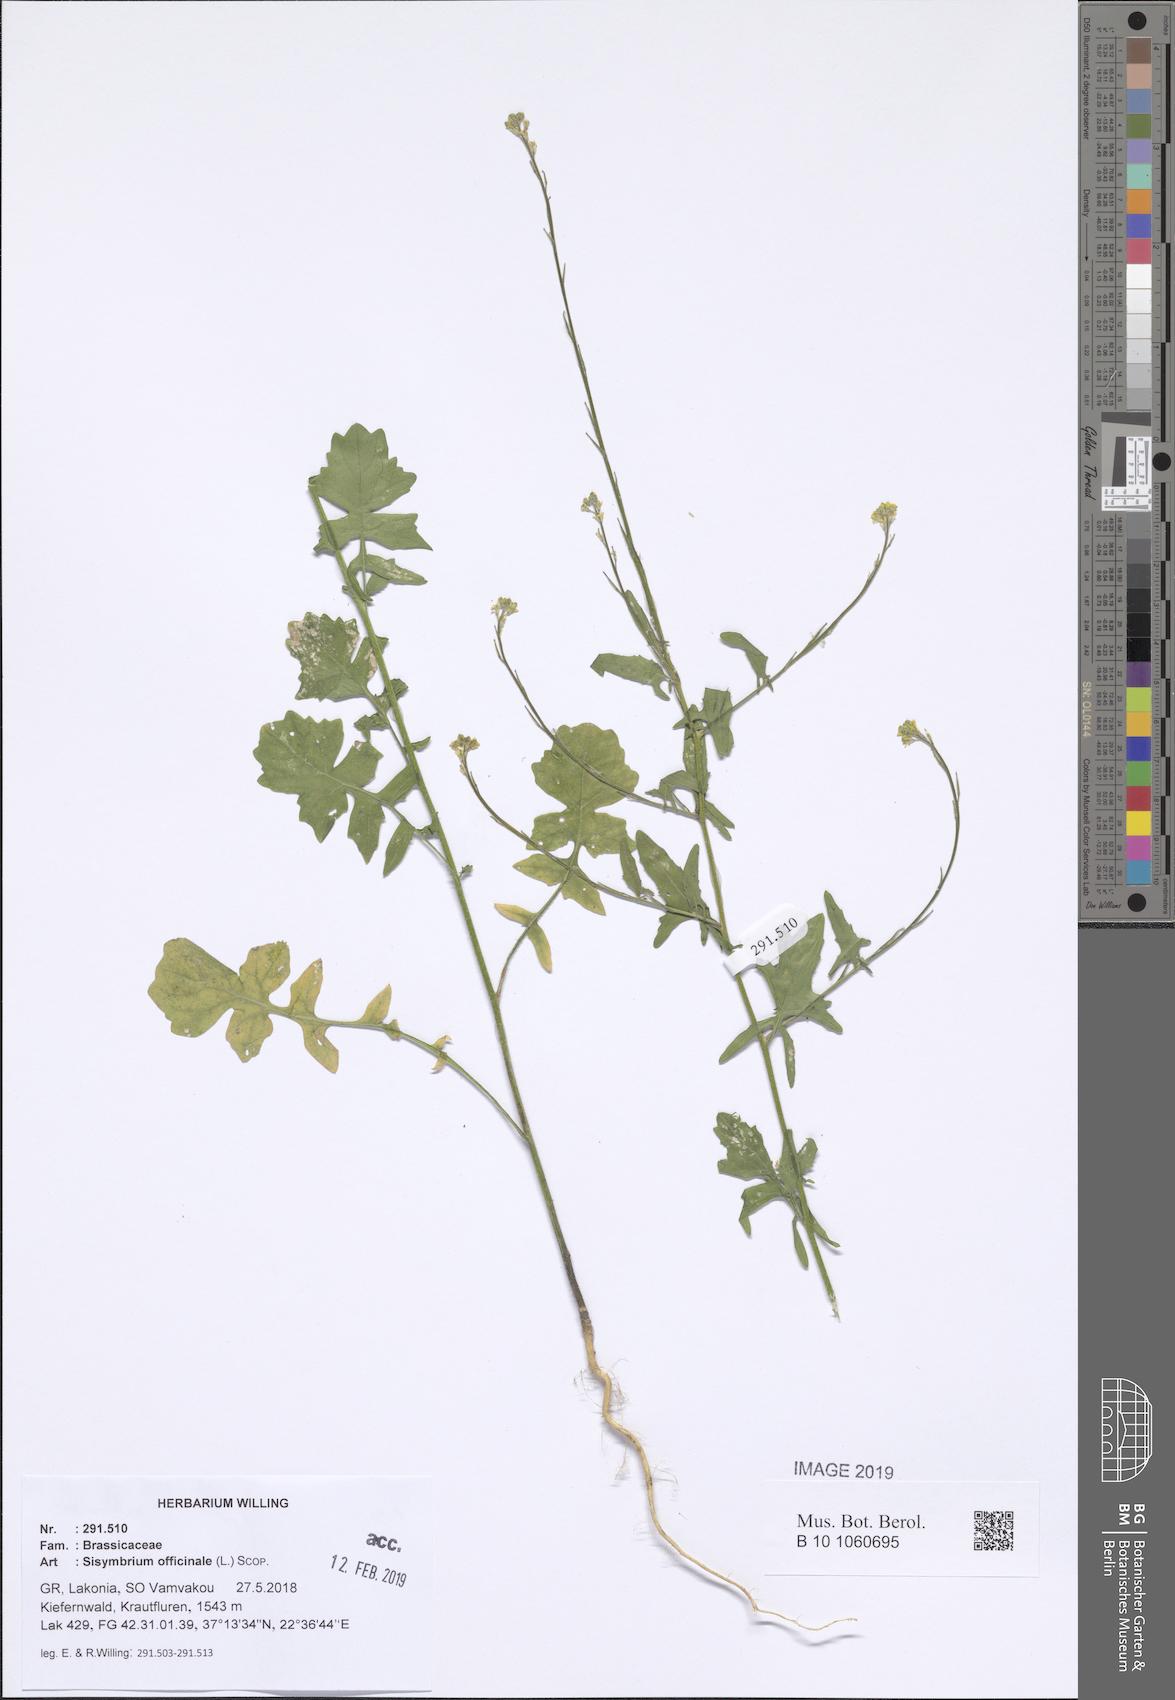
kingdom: Plantae
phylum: Tracheophyta
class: Magnoliopsida
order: Brassicales
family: Brassicaceae
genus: Sisymbrium
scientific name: Sisymbrium officinale
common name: Hedge mustard
